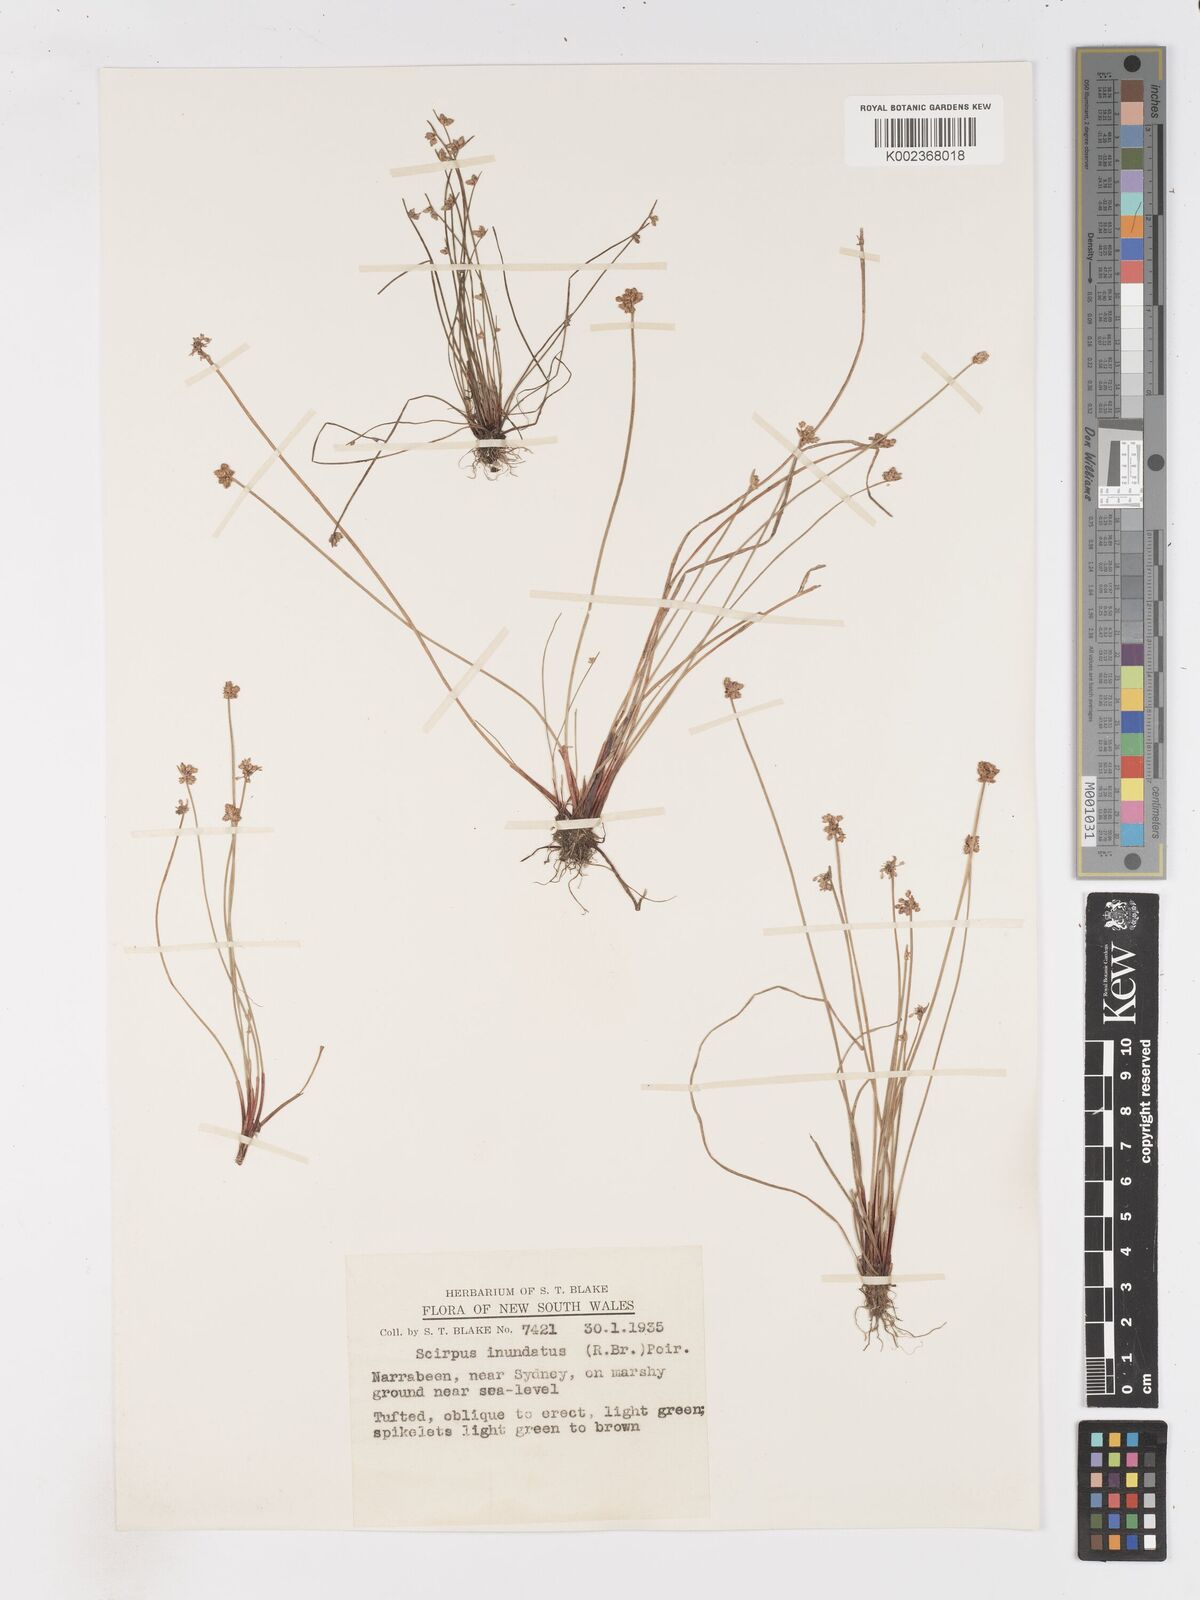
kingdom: Plantae
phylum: Tracheophyta
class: Liliopsida
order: Poales
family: Cyperaceae
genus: Isolepis
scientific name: Isolepis inundata
